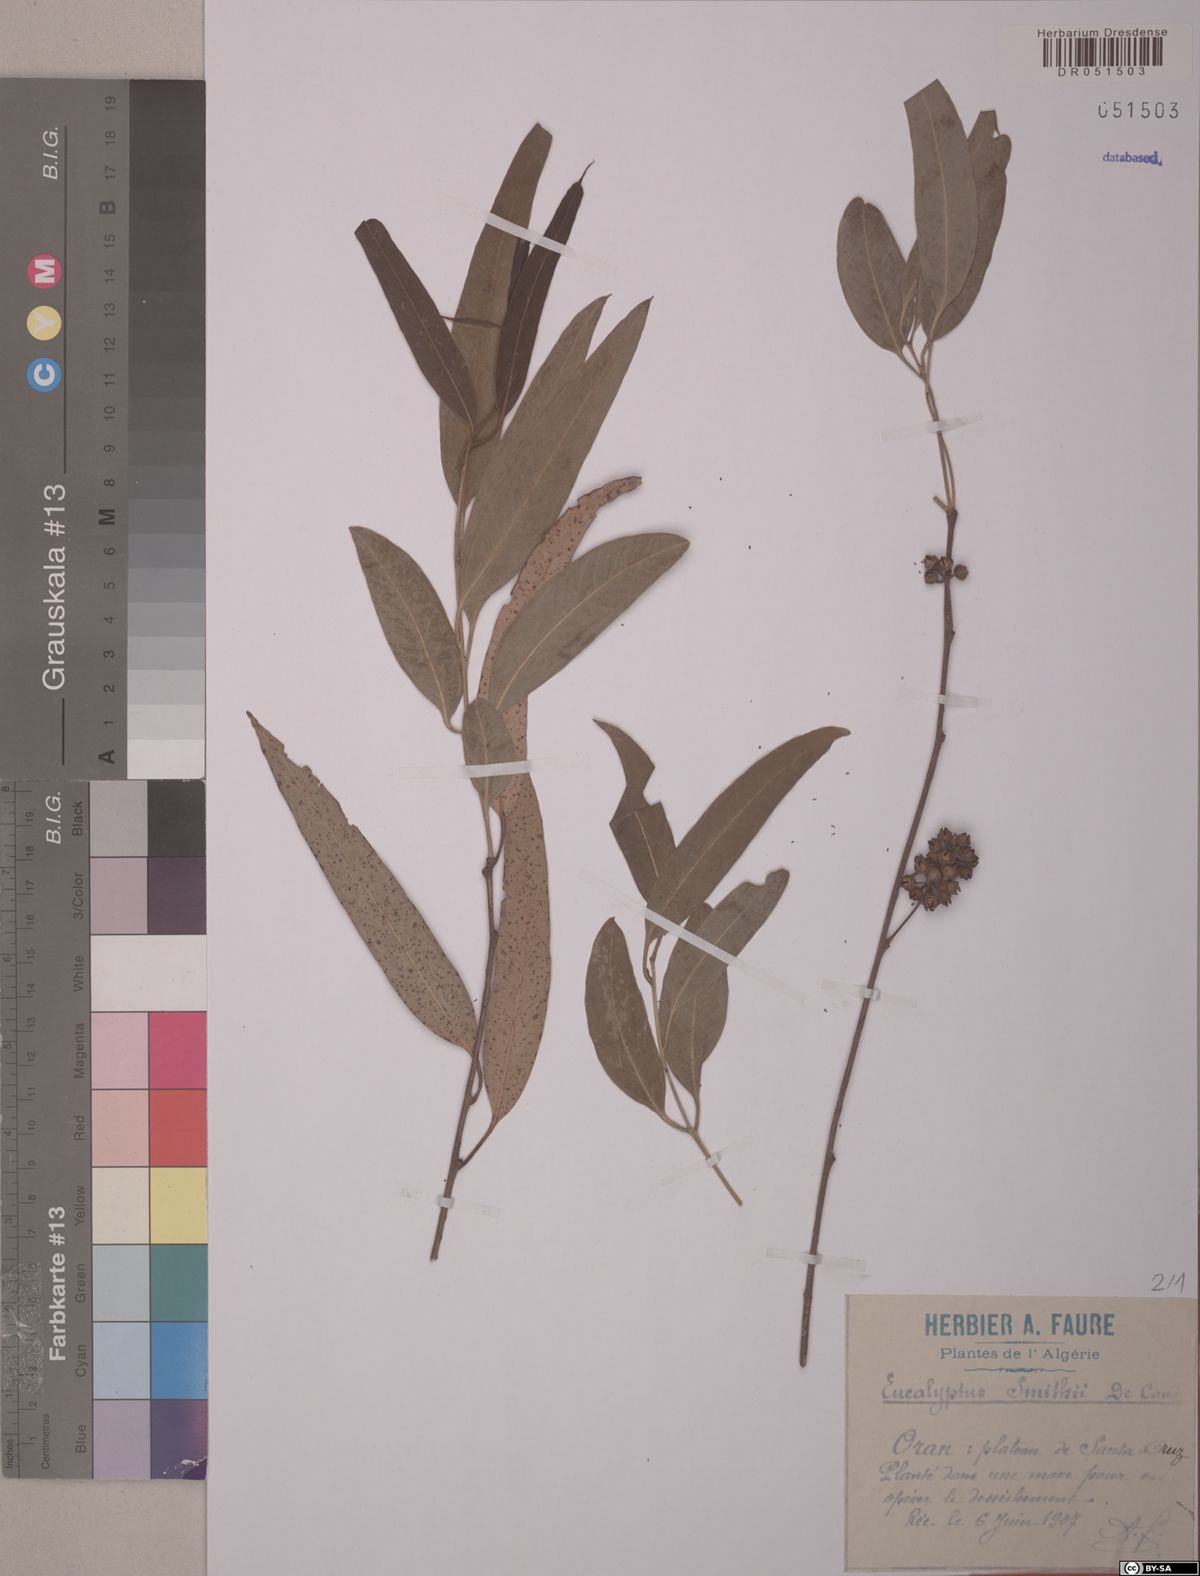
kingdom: Plantae
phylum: Tracheophyta
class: Magnoliopsida
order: Myrtales
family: Myrtaceae
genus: Eucalyptus
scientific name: Eucalyptus smithii
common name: Blackbutt-peppermint
